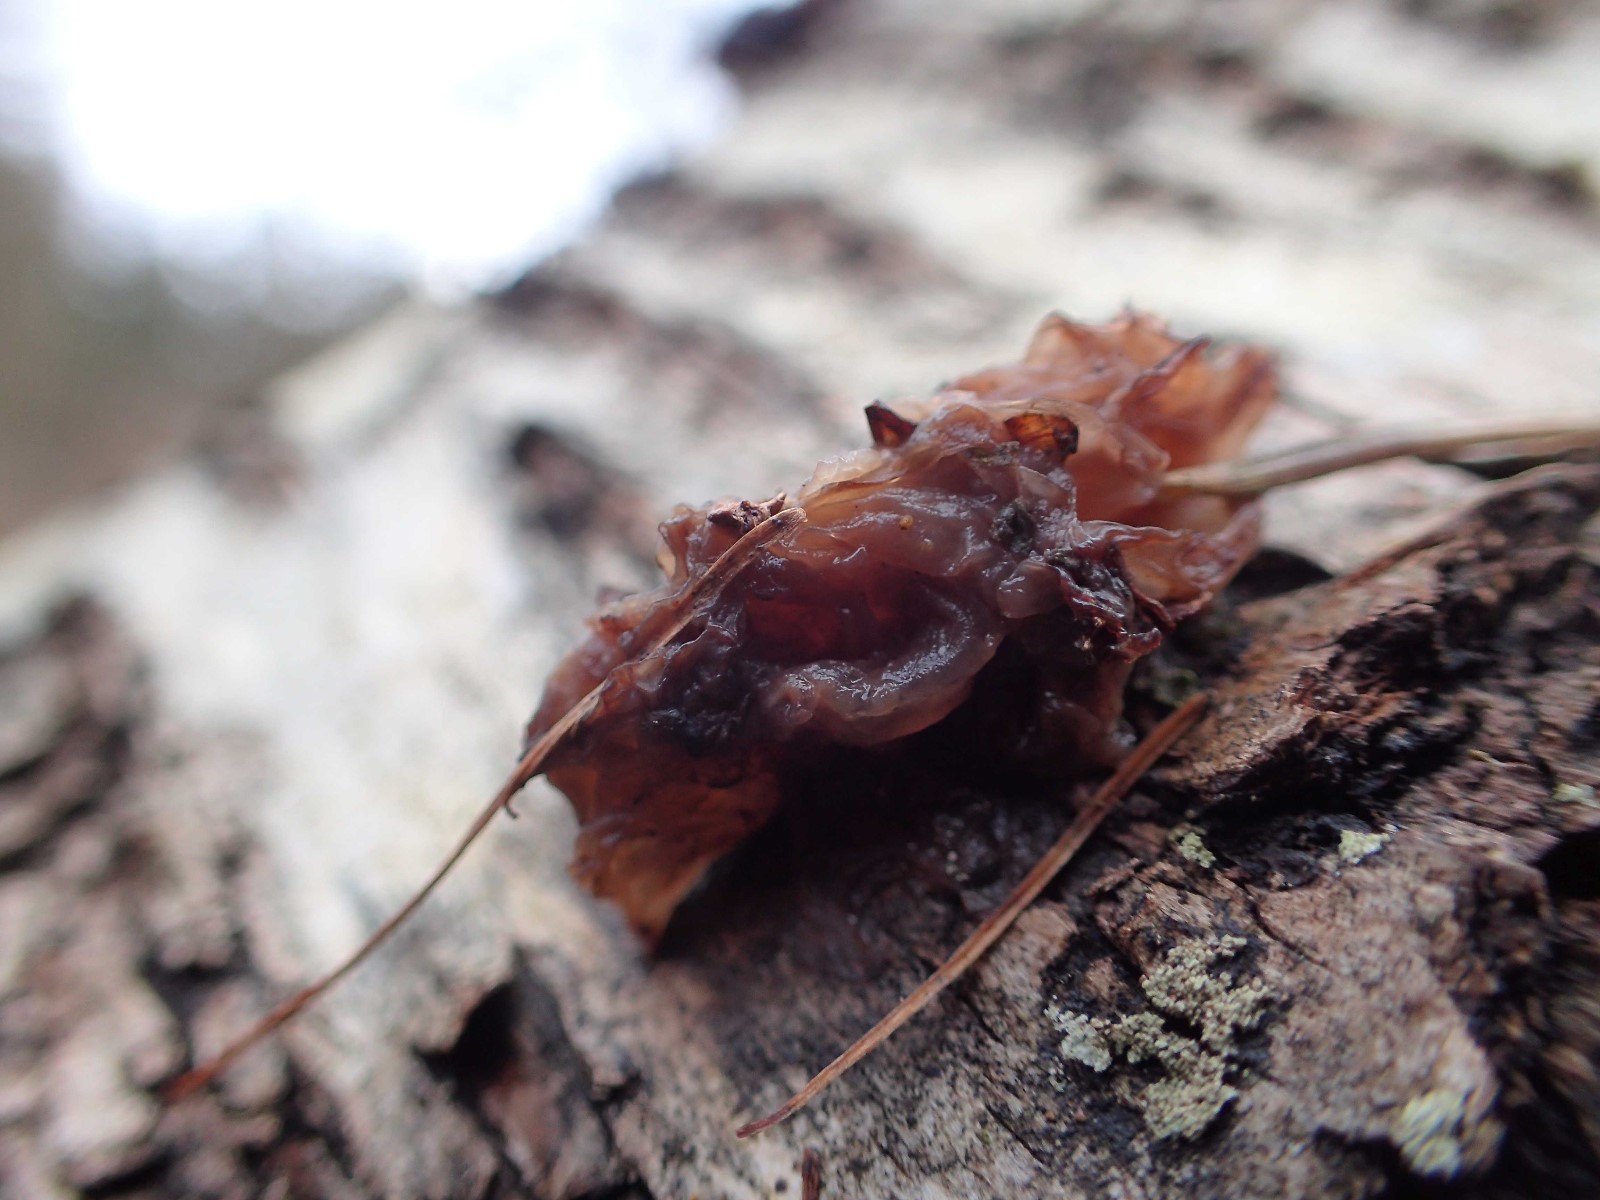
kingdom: Fungi
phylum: Basidiomycota
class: Tremellomycetes
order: Tremellales
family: Tremellaceae
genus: Phaeotremella
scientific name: Phaeotremella
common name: bævresvamp
